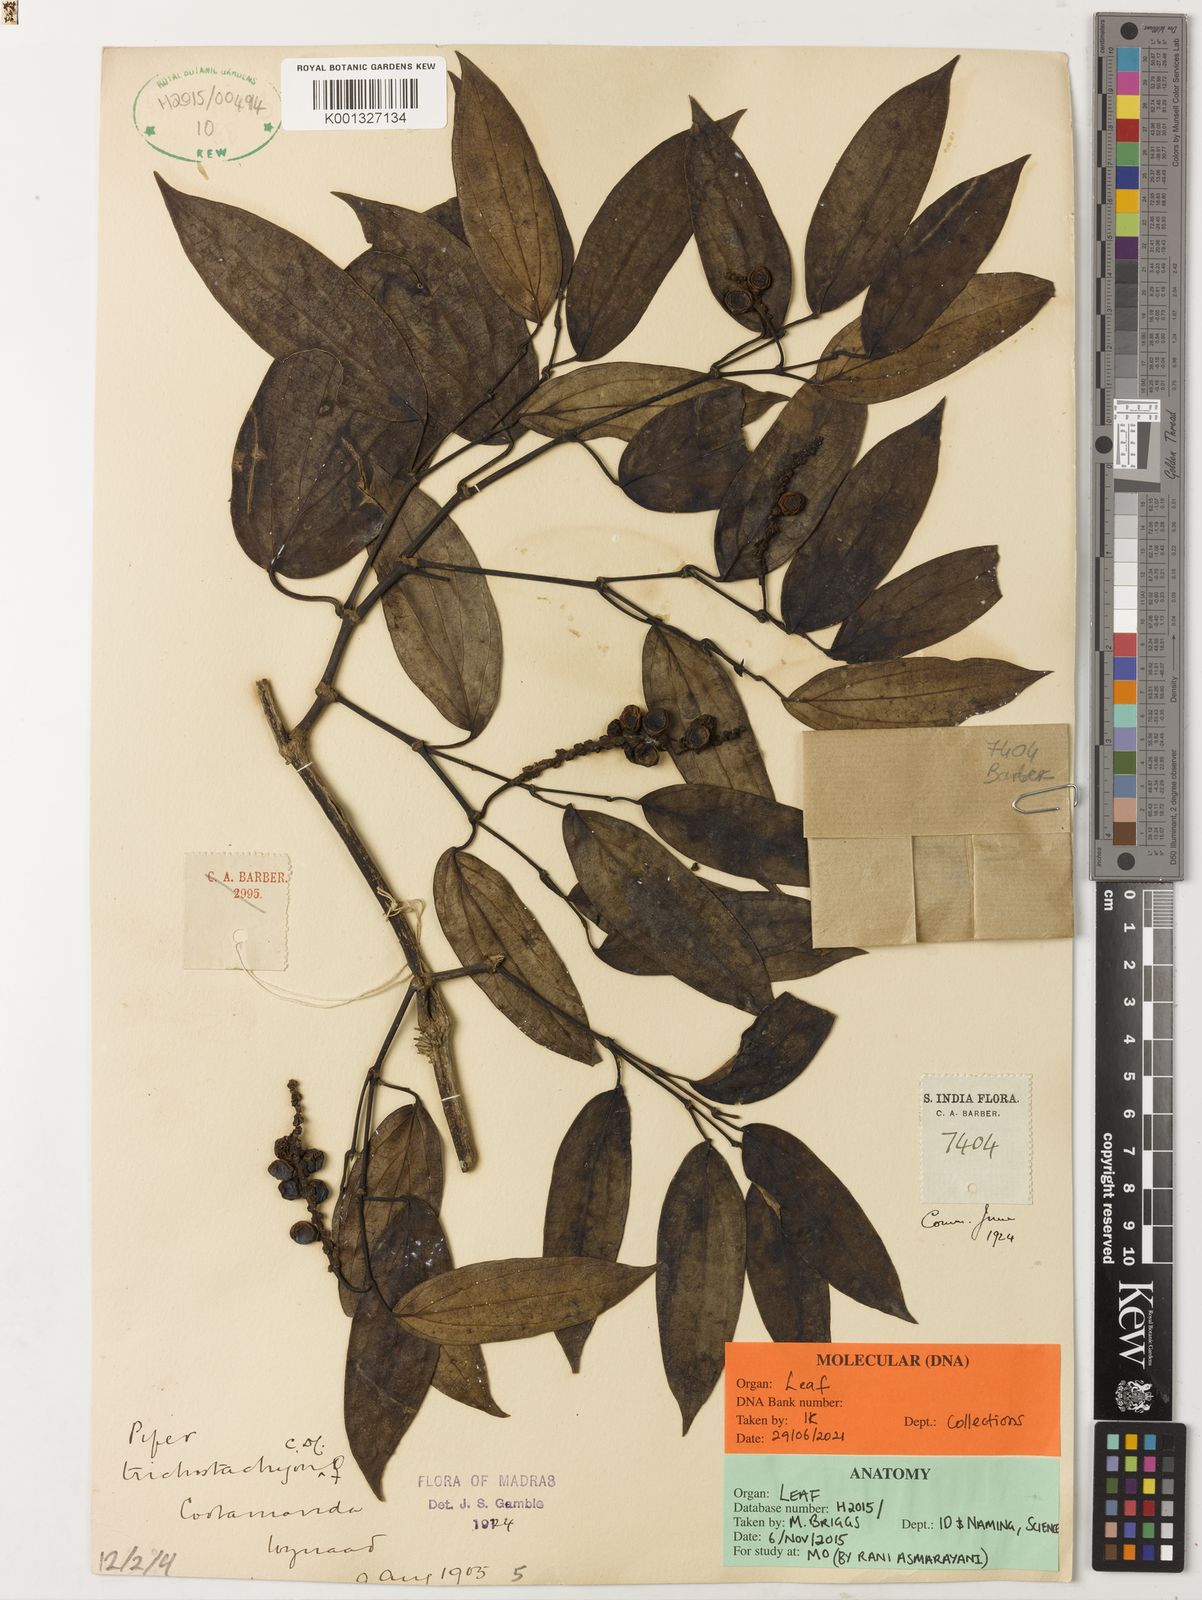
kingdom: Plantae
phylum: Tracheophyta
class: Magnoliopsida
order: Piperales
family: Piperaceae
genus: Piper
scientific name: Piper trichostachyon
